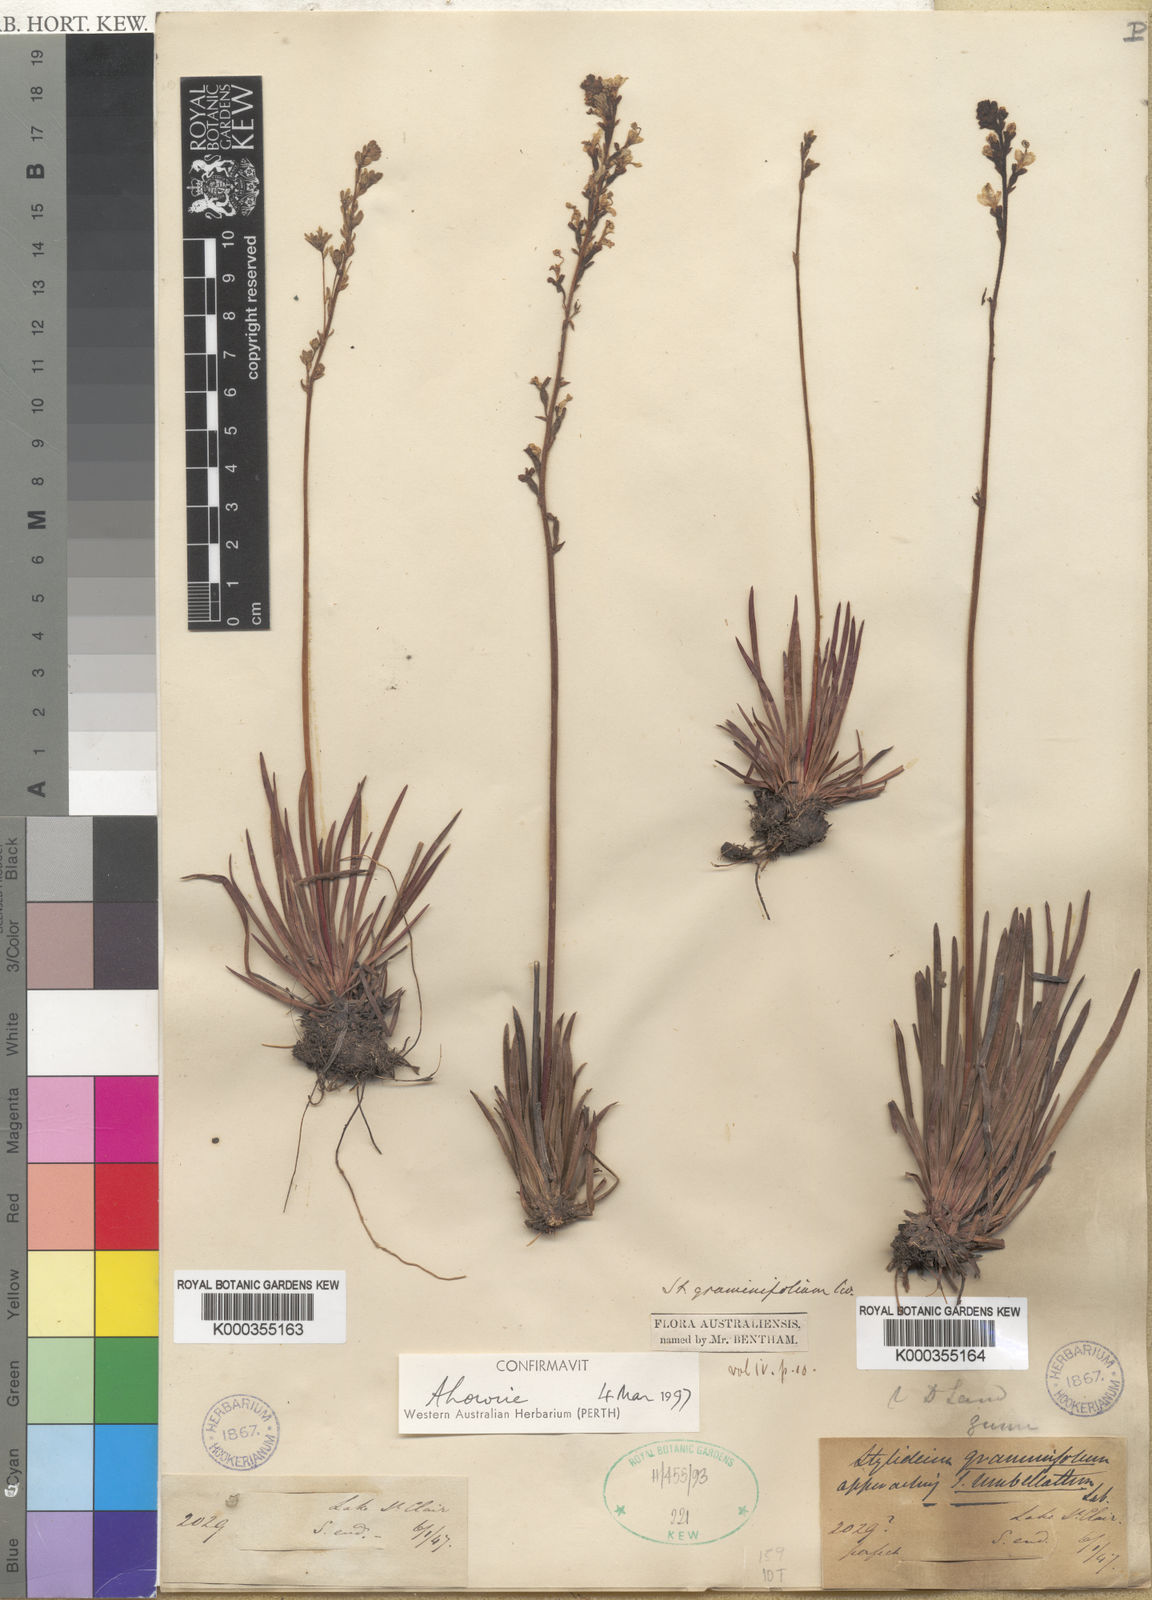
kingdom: Plantae
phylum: Tracheophyta
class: Magnoliopsida
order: Asterales
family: Stylidiaceae
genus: Stylidium
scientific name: Stylidium graminifolium
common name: Grass triggerplant
